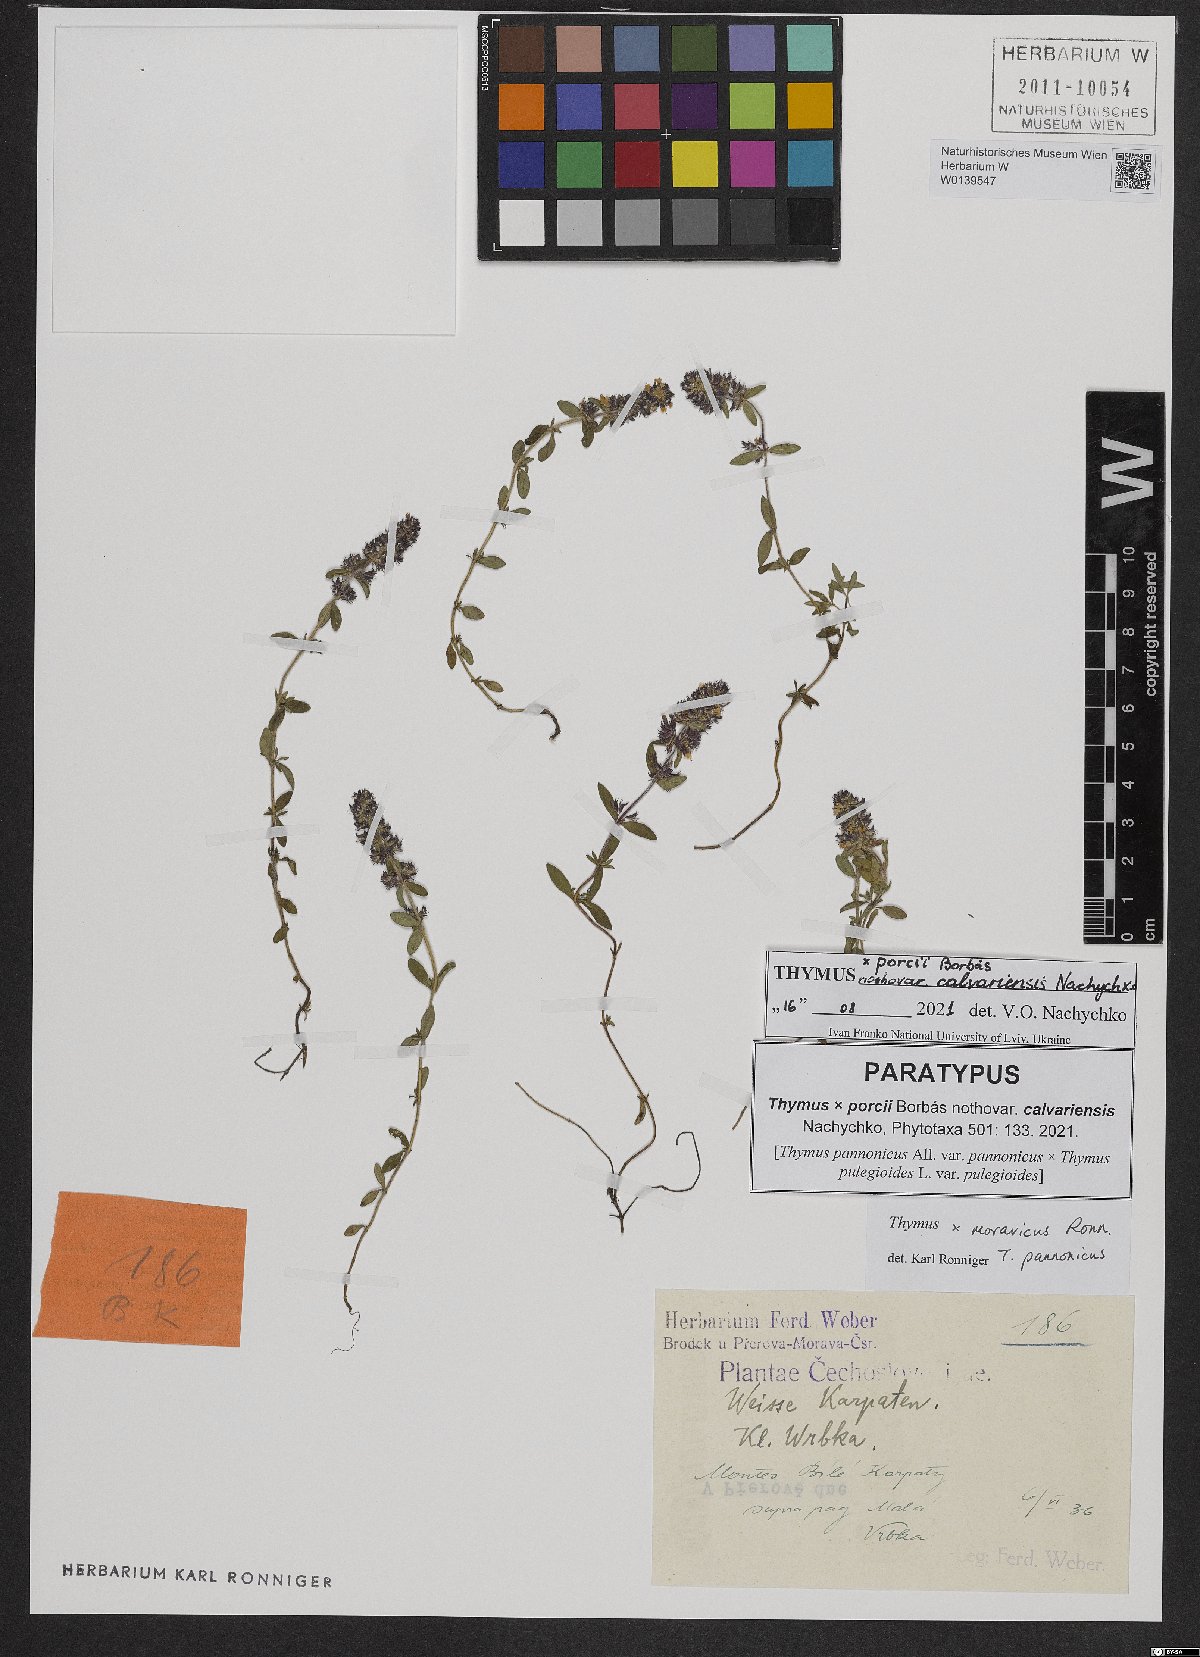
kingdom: Plantae
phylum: Tracheophyta
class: Magnoliopsida
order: Lamiales
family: Lamiaceae
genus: Thymus
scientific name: Thymus porcii
